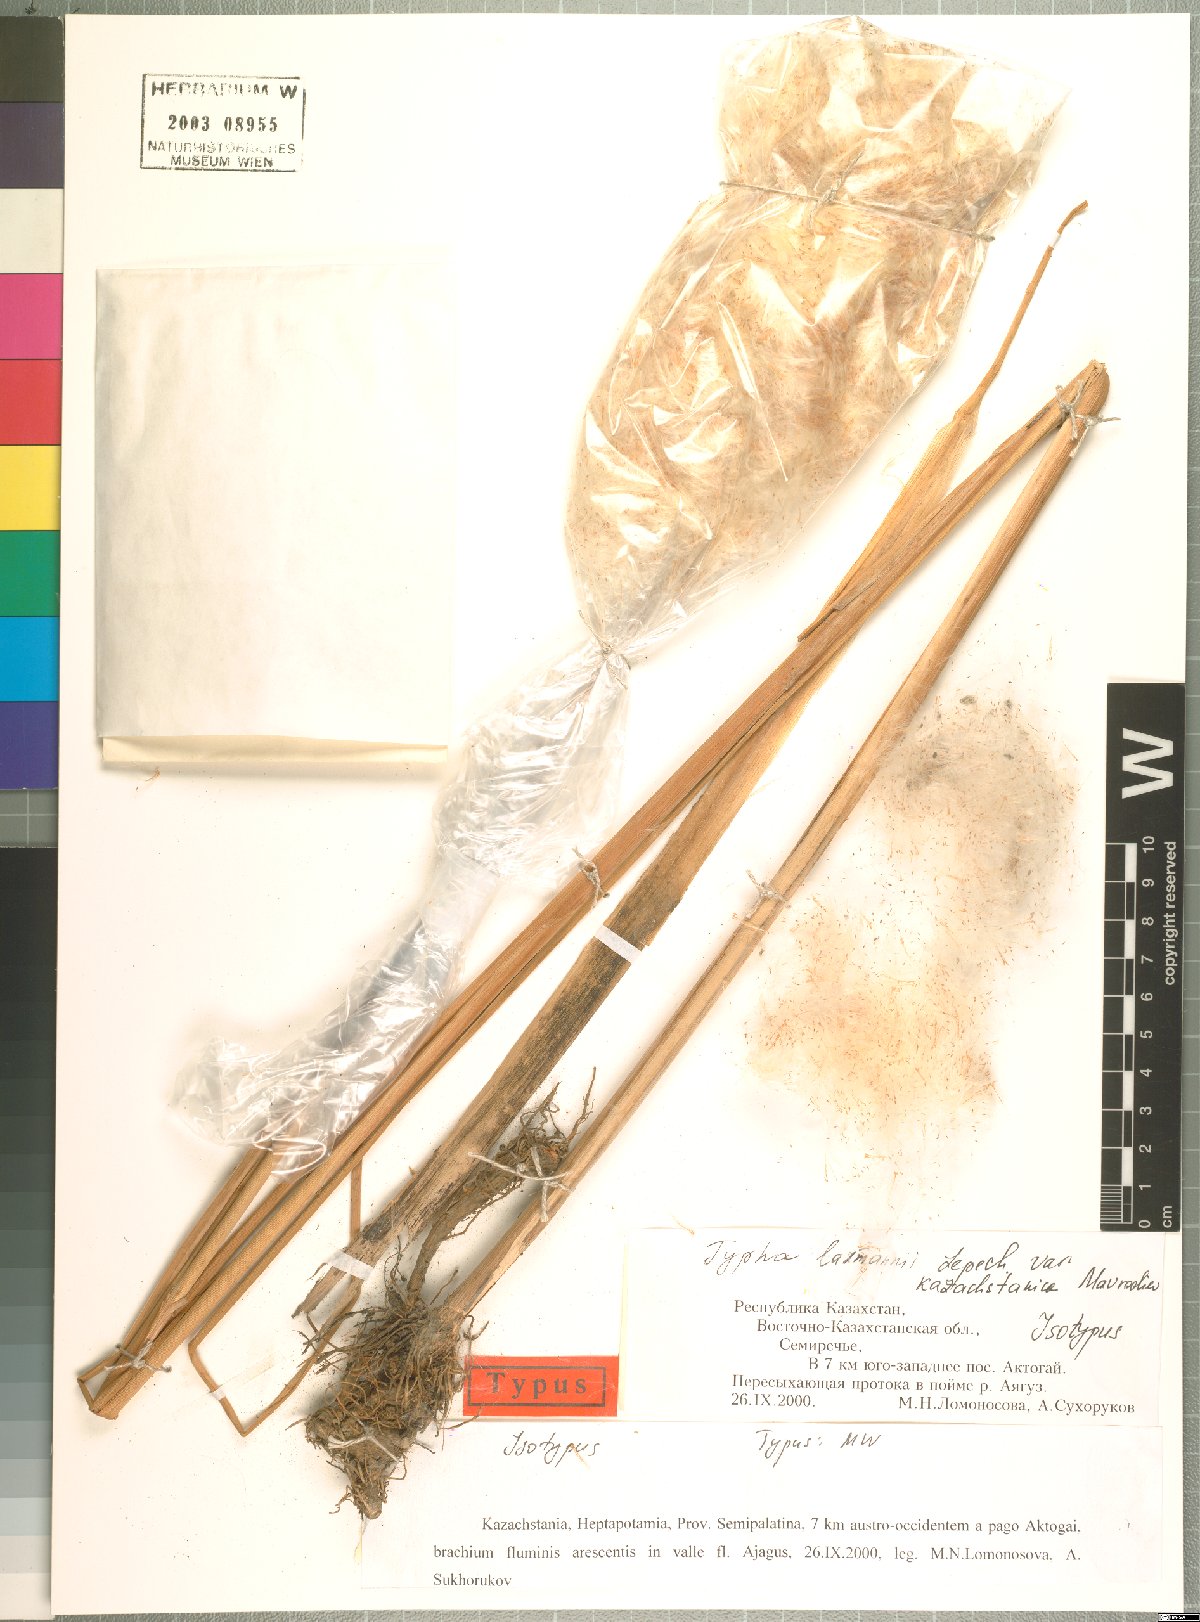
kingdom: Plantae
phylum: Tracheophyta
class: Liliopsida
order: Poales
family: Typhaceae
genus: Typha
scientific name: Typha laxmannii
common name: Laxman’s bulrush
